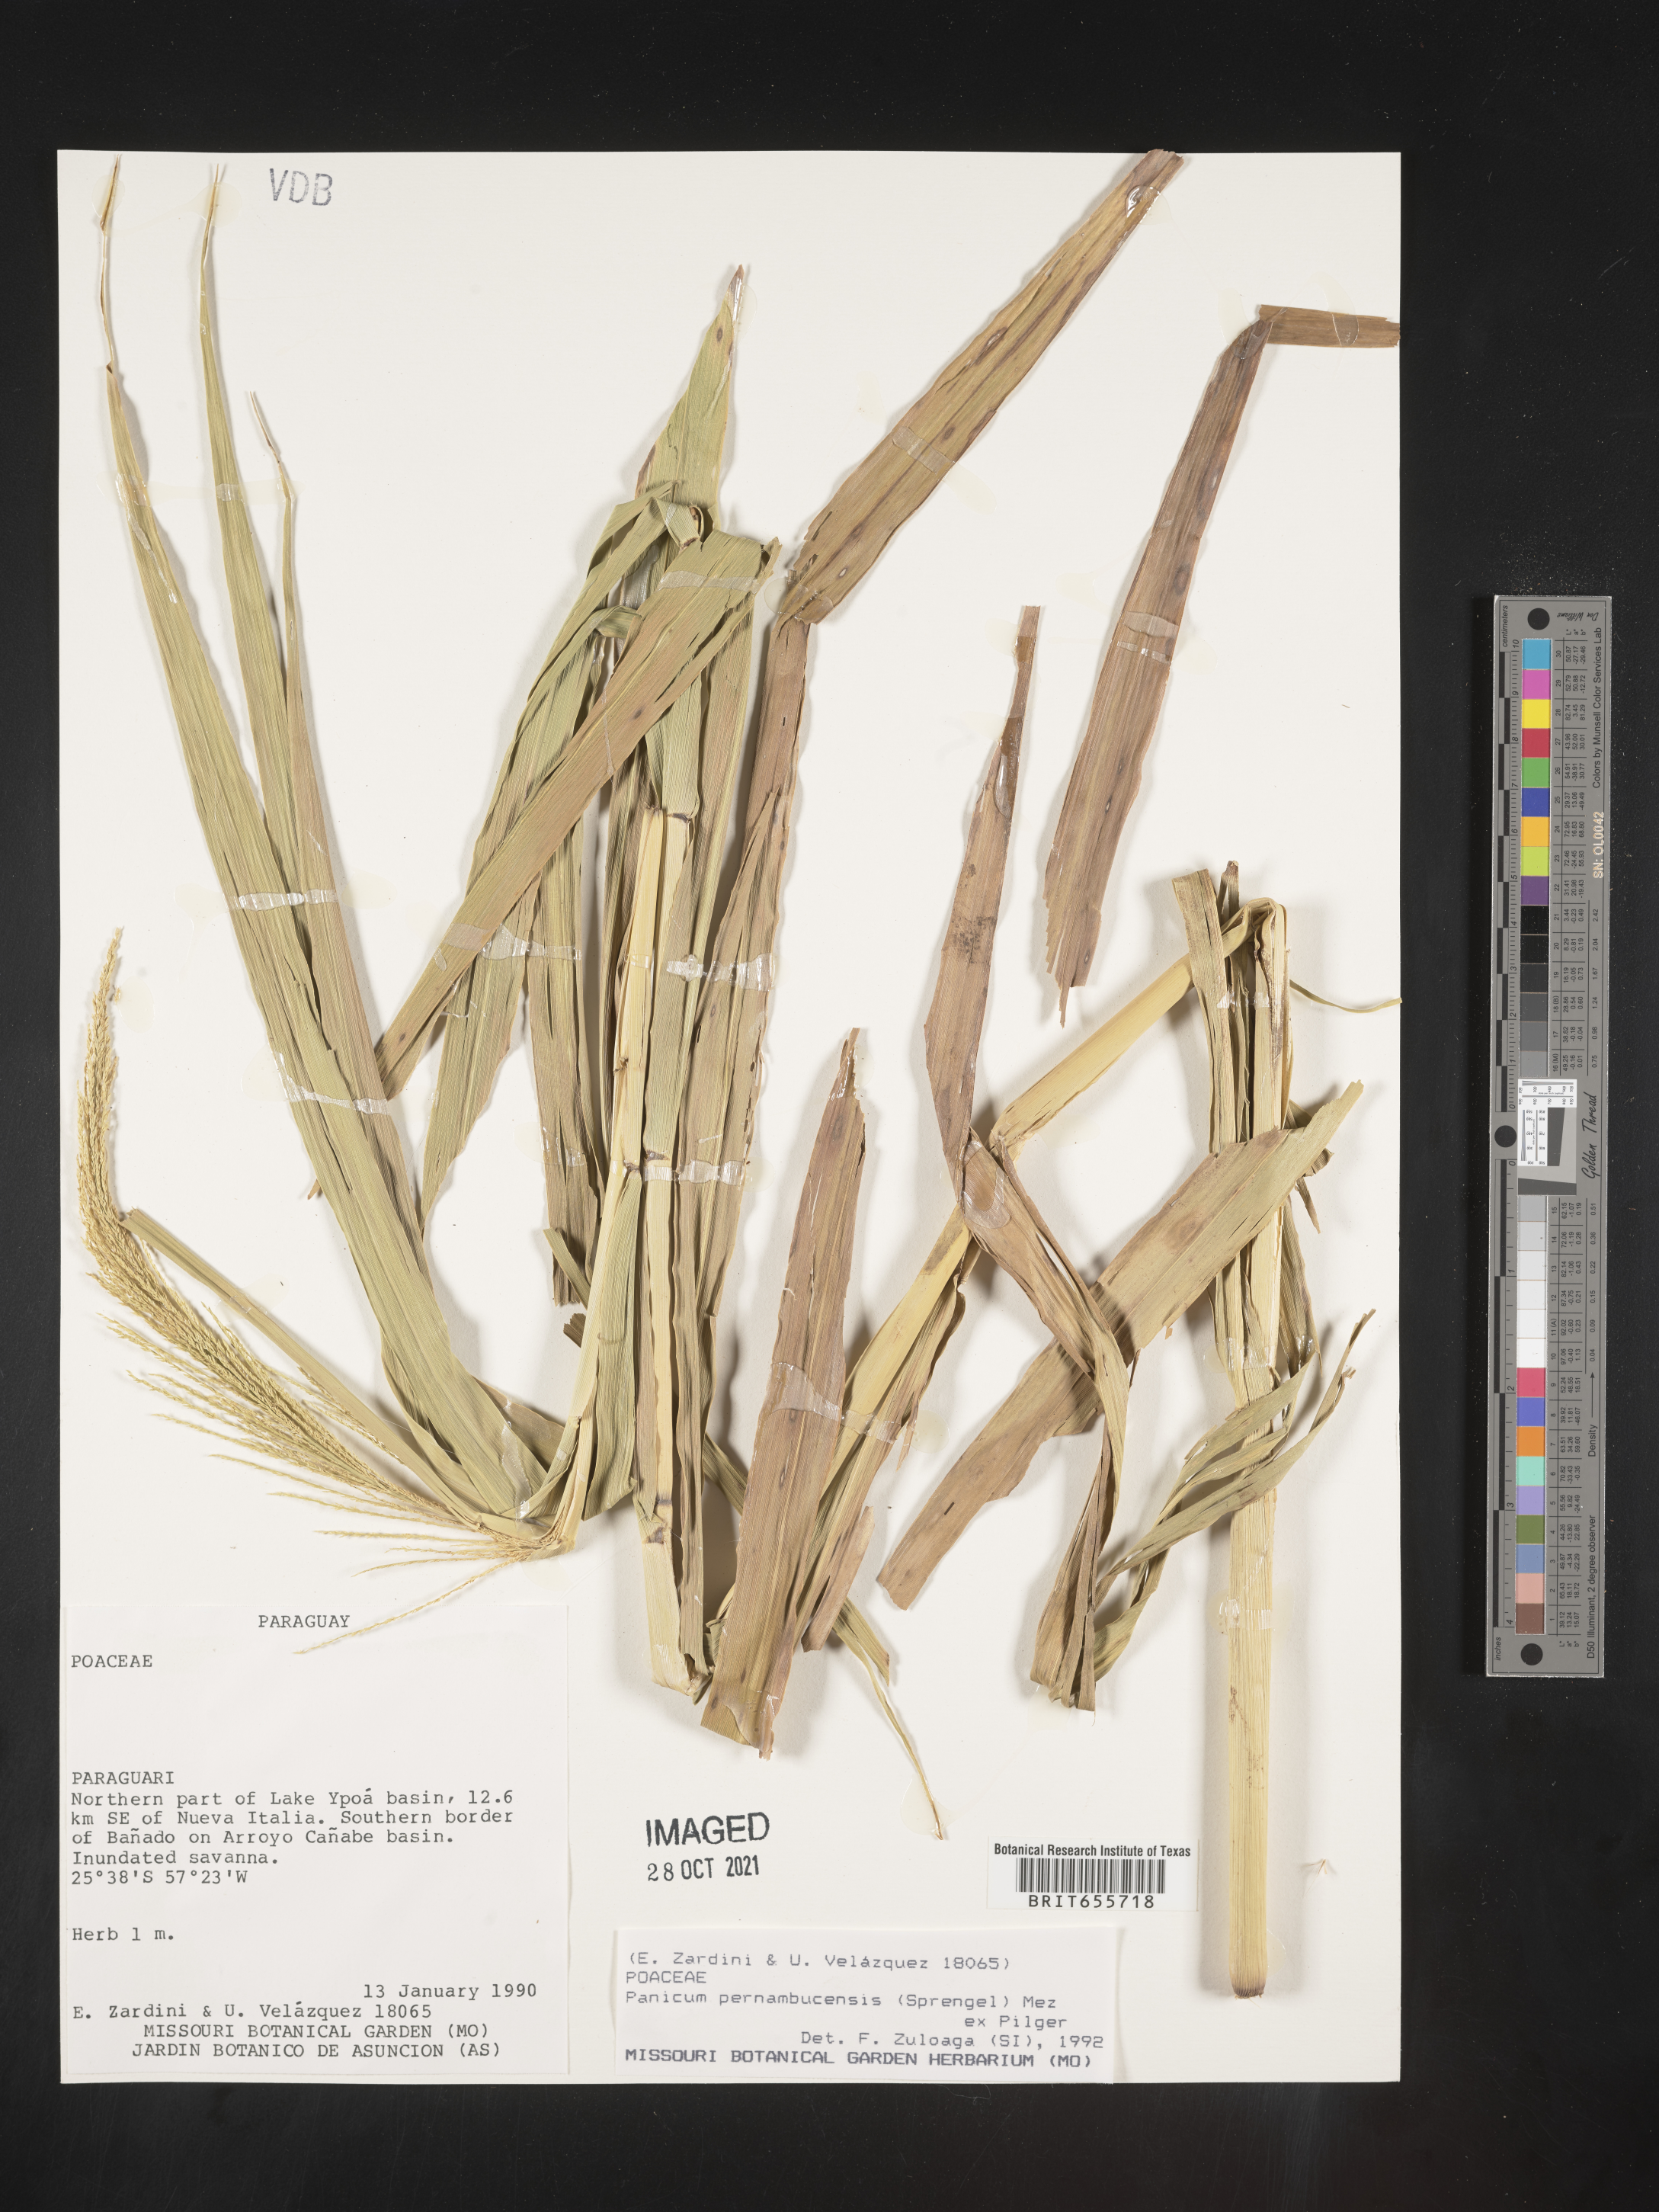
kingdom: Plantae
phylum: Tracheophyta
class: Liliopsida
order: Poales
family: Poaceae
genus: Panicum
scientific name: Panicum
